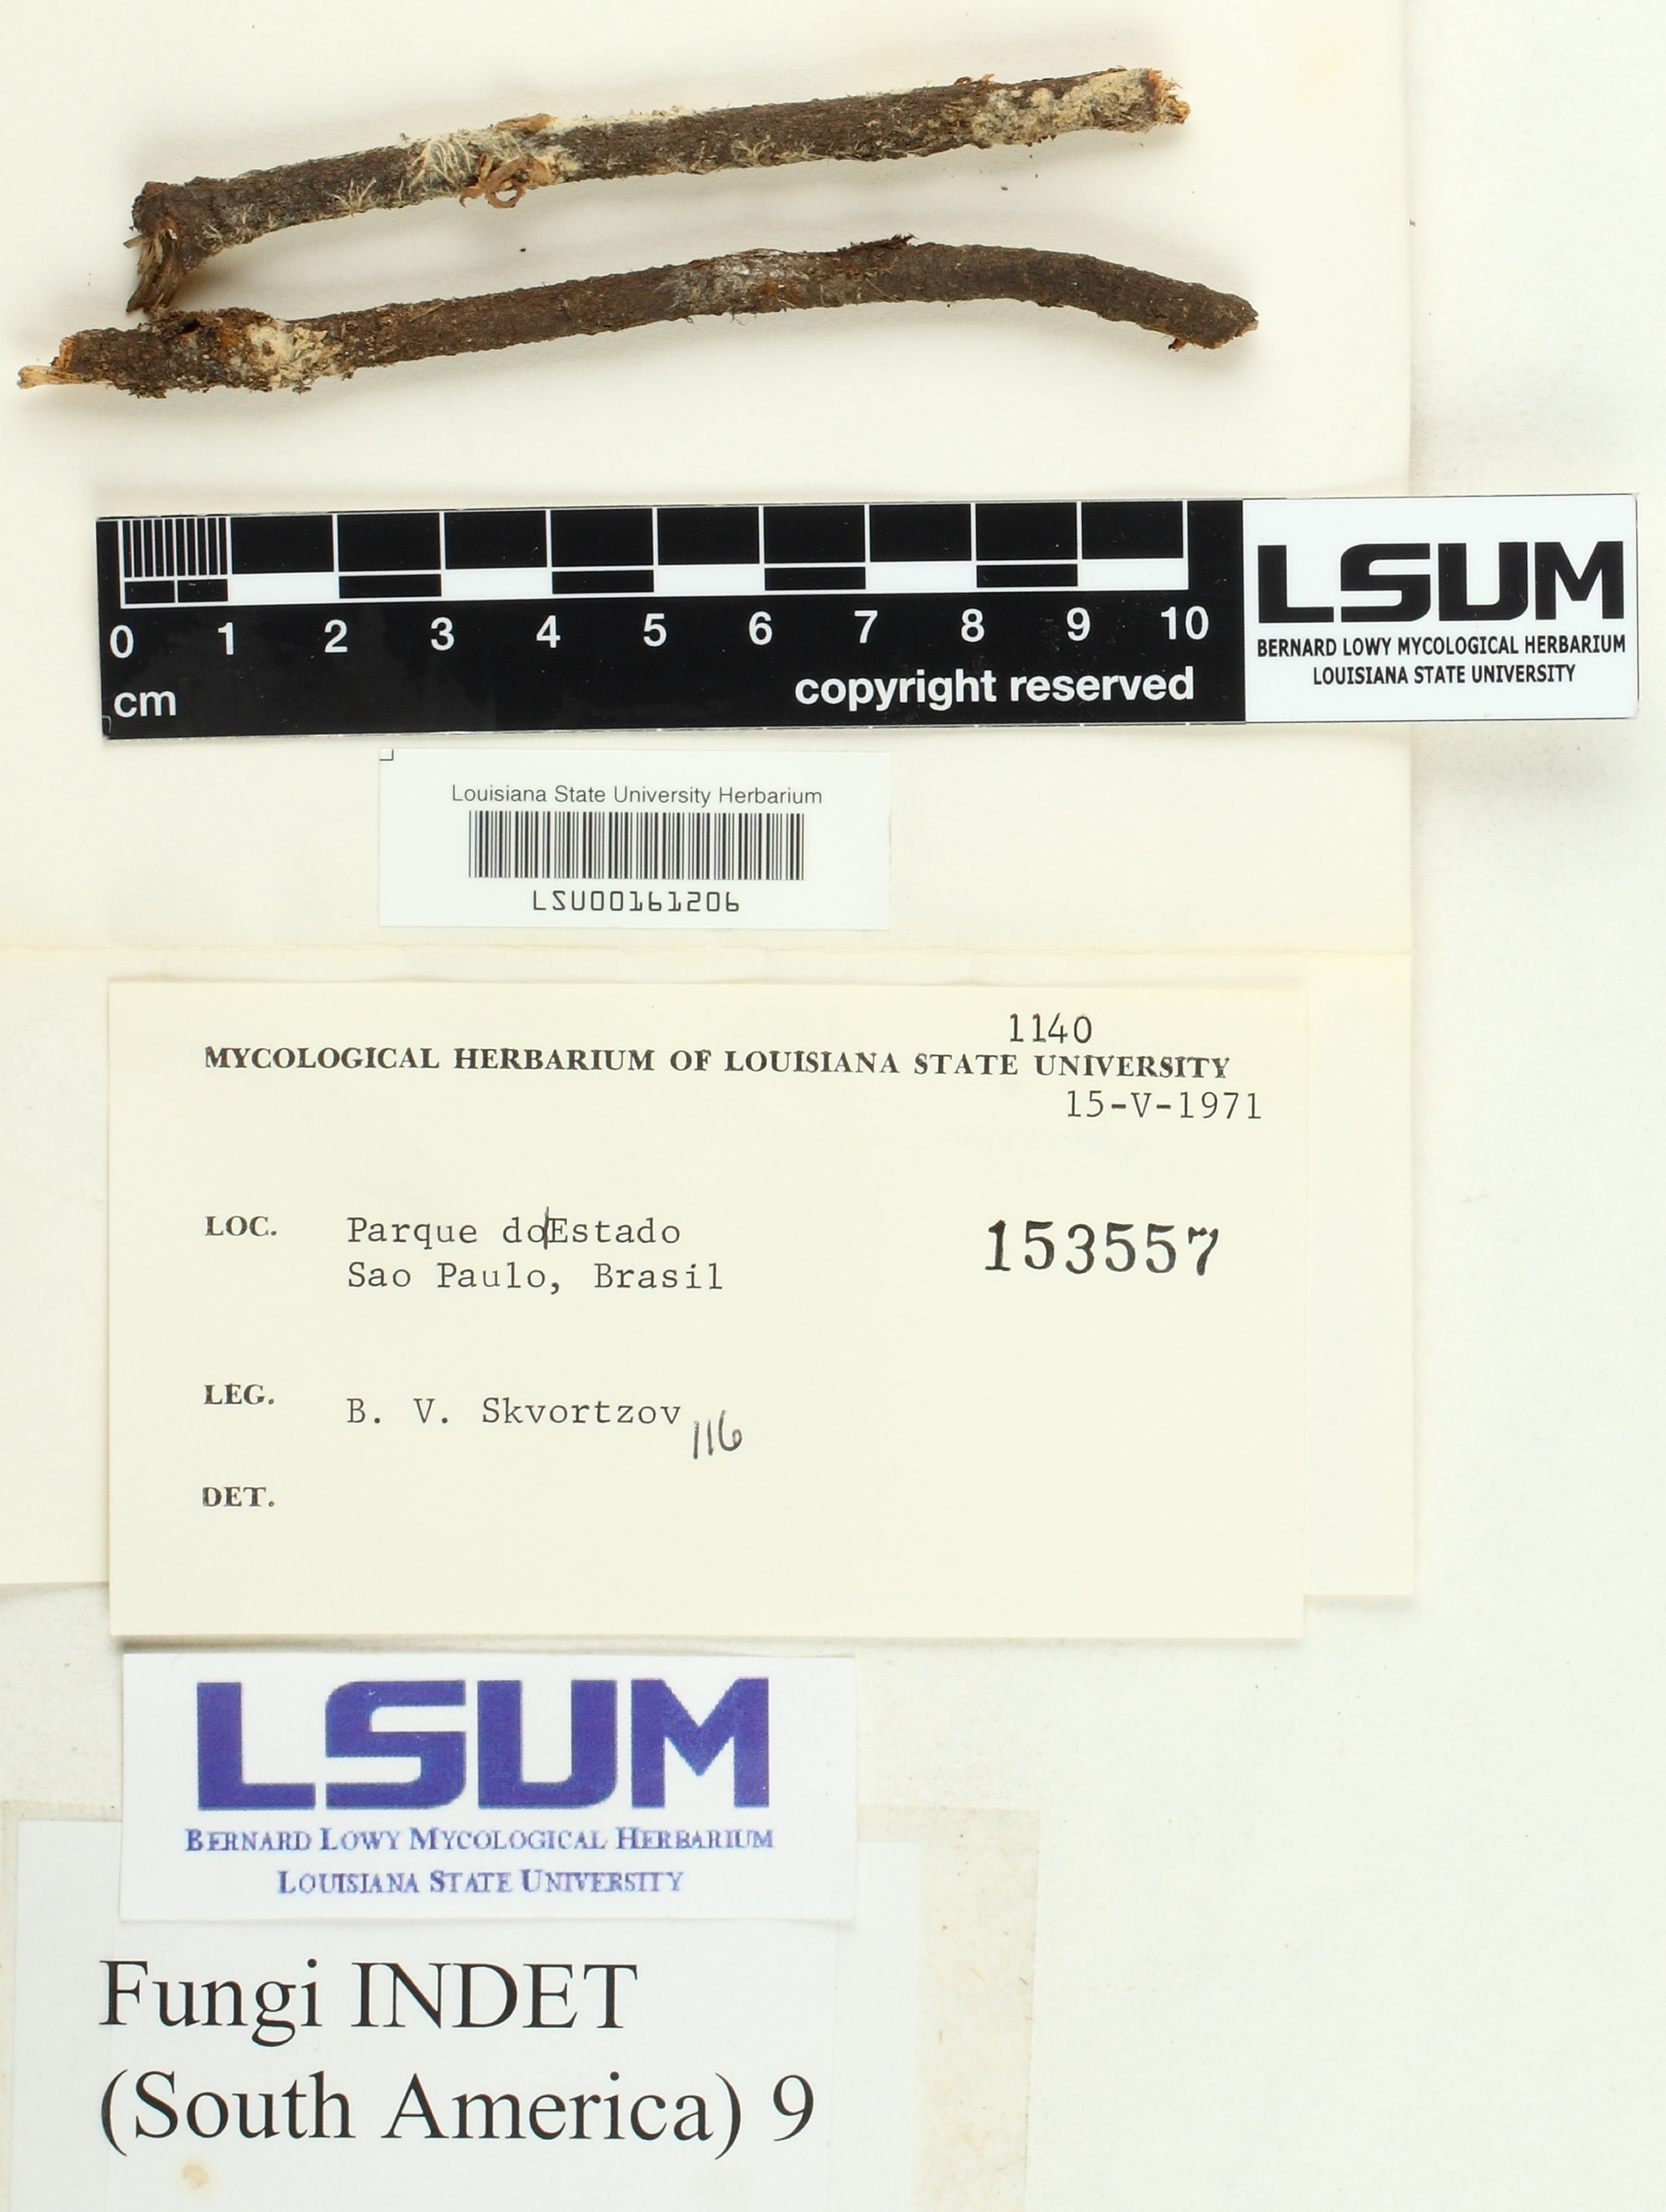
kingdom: Fungi
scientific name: Fungi
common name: Fungi
